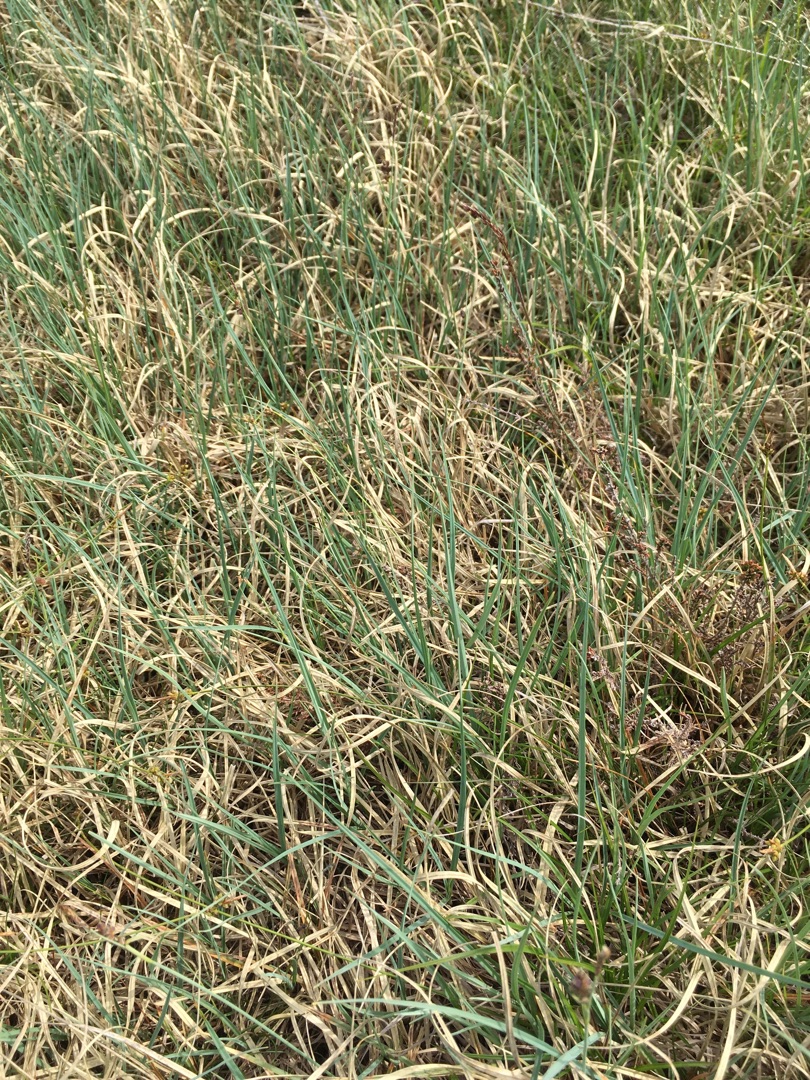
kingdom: Plantae
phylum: Tracheophyta
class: Liliopsida
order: Poales
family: Cyperaceae
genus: Carex
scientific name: Carex panicea
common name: Hirse-star
